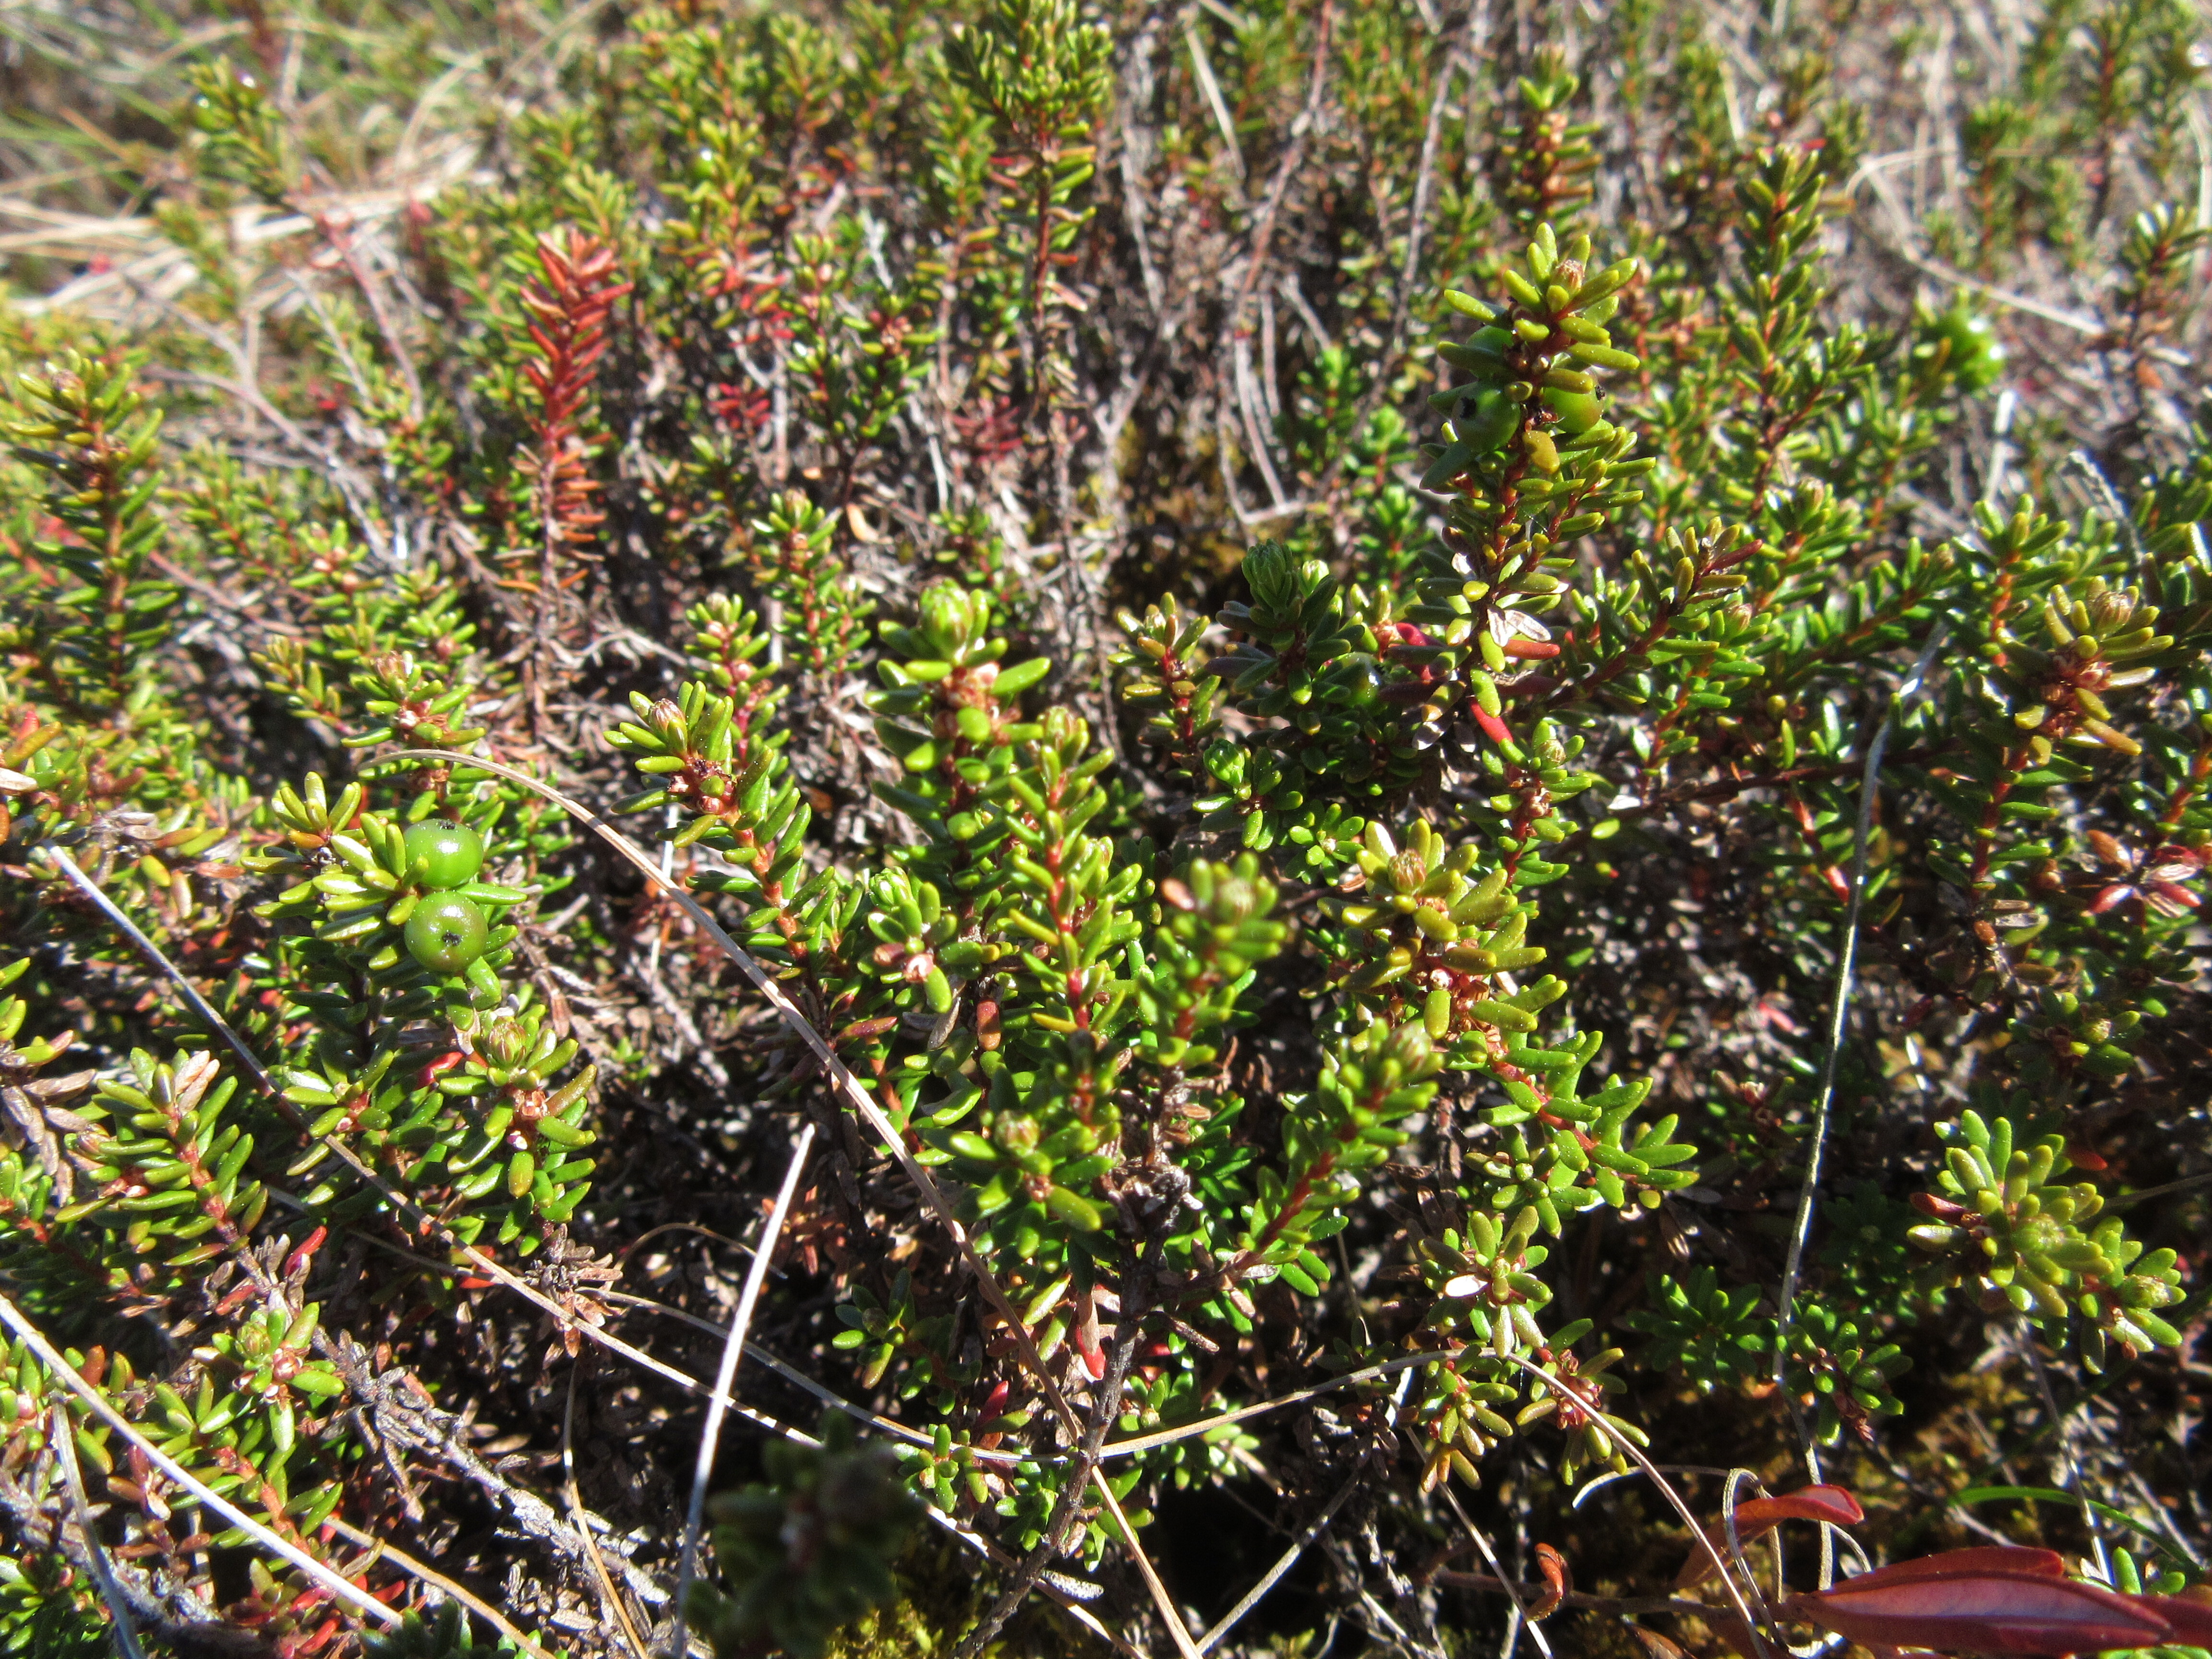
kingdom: Plantae
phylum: Tracheophyta
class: Magnoliopsida
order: Ericales
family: Ericaceae
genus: Empetrum
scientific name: Empetrum nigrum
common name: Black crowberry
